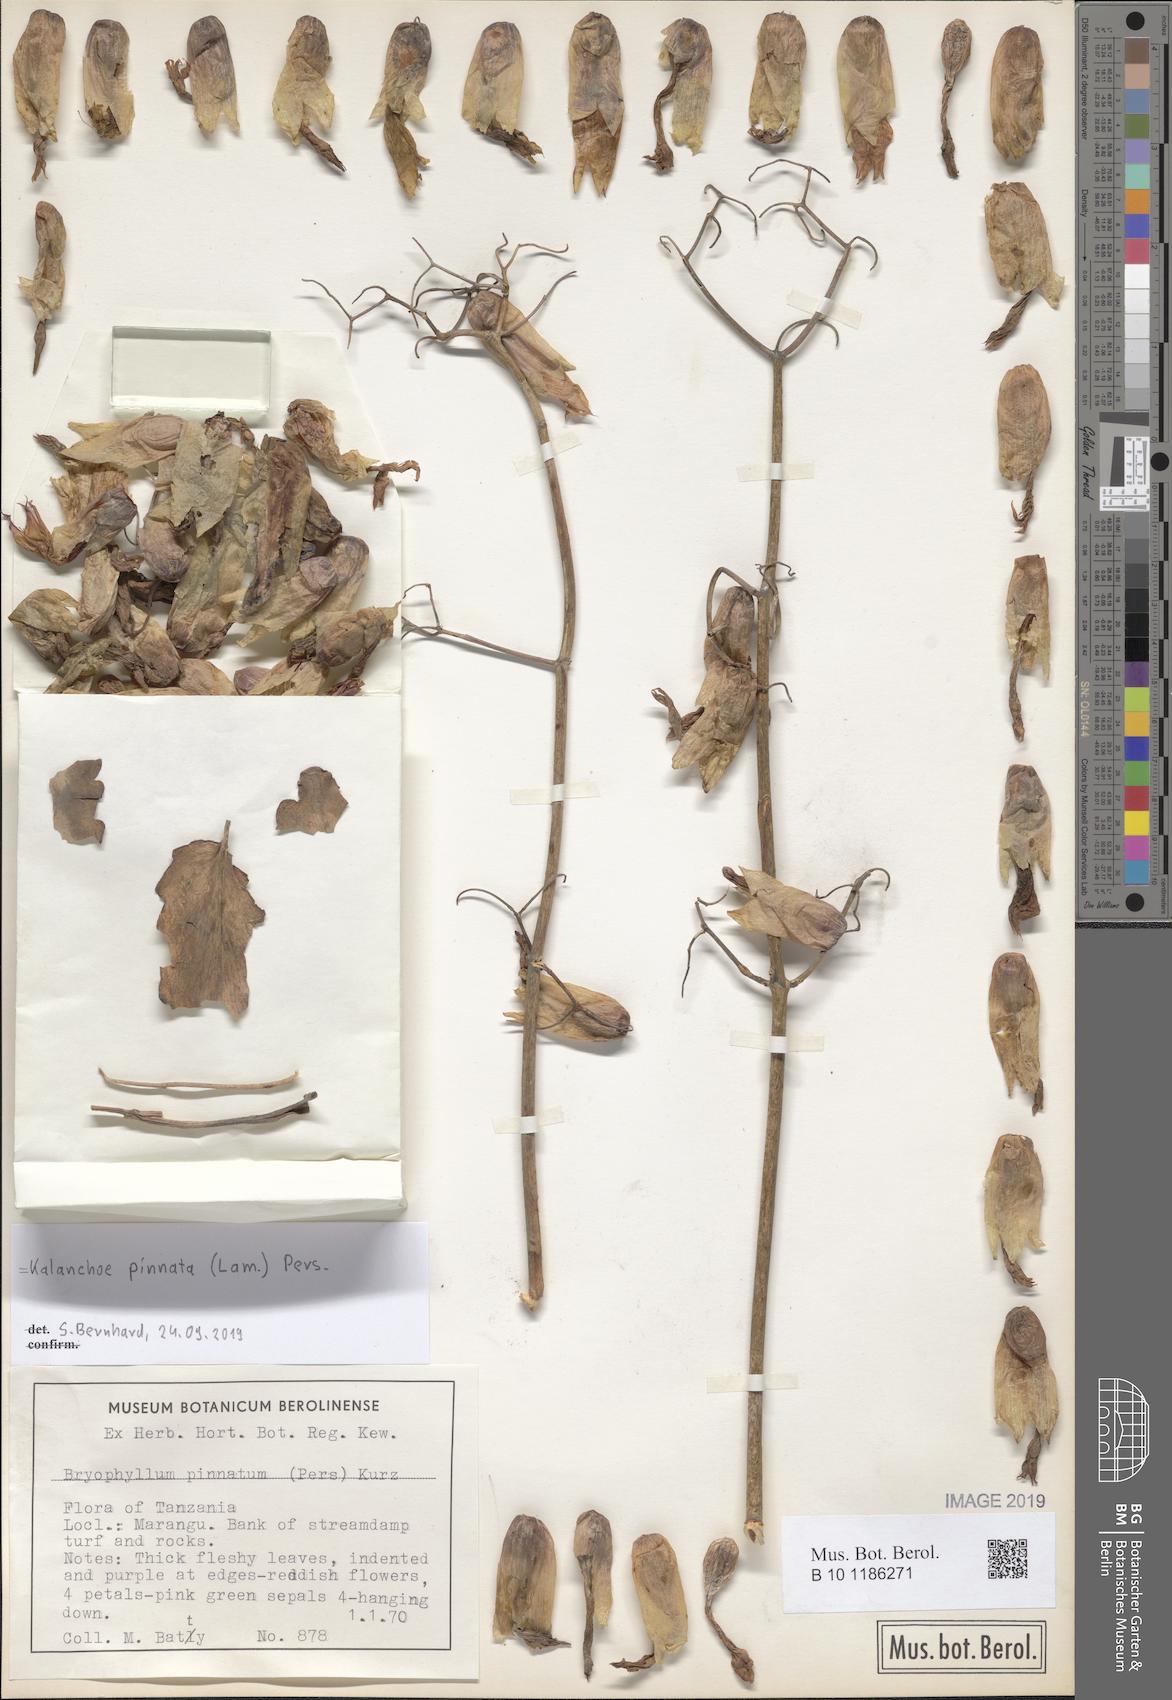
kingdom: Plantae
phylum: Tracheophyta
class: Magnoliopsida
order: Saxifragales
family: Crassulaceae
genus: Kalanchoe
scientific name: Kalanchoe pinnata
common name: Cathedral bells
